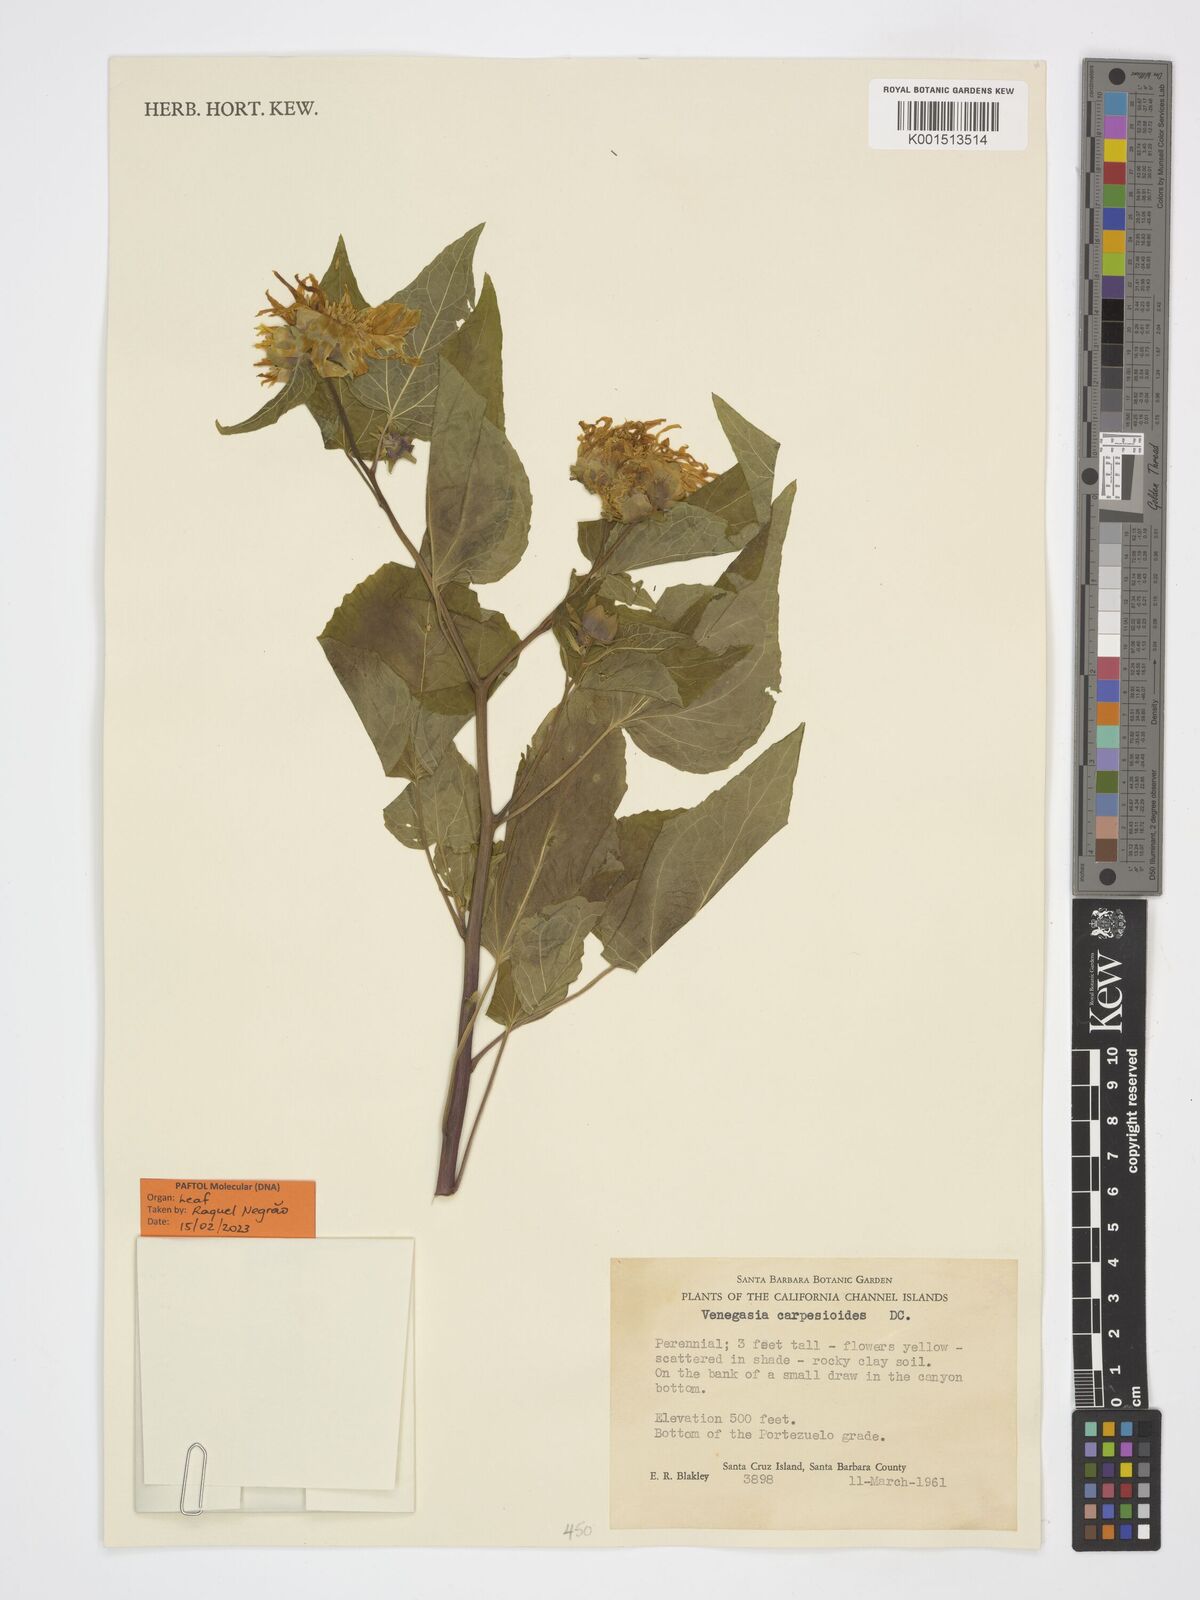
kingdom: Plantae
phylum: Tracheophyta
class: Magnoliopsida
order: Asterales
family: Asteraceae
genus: Venegasia
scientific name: Venegasia carpesioides
